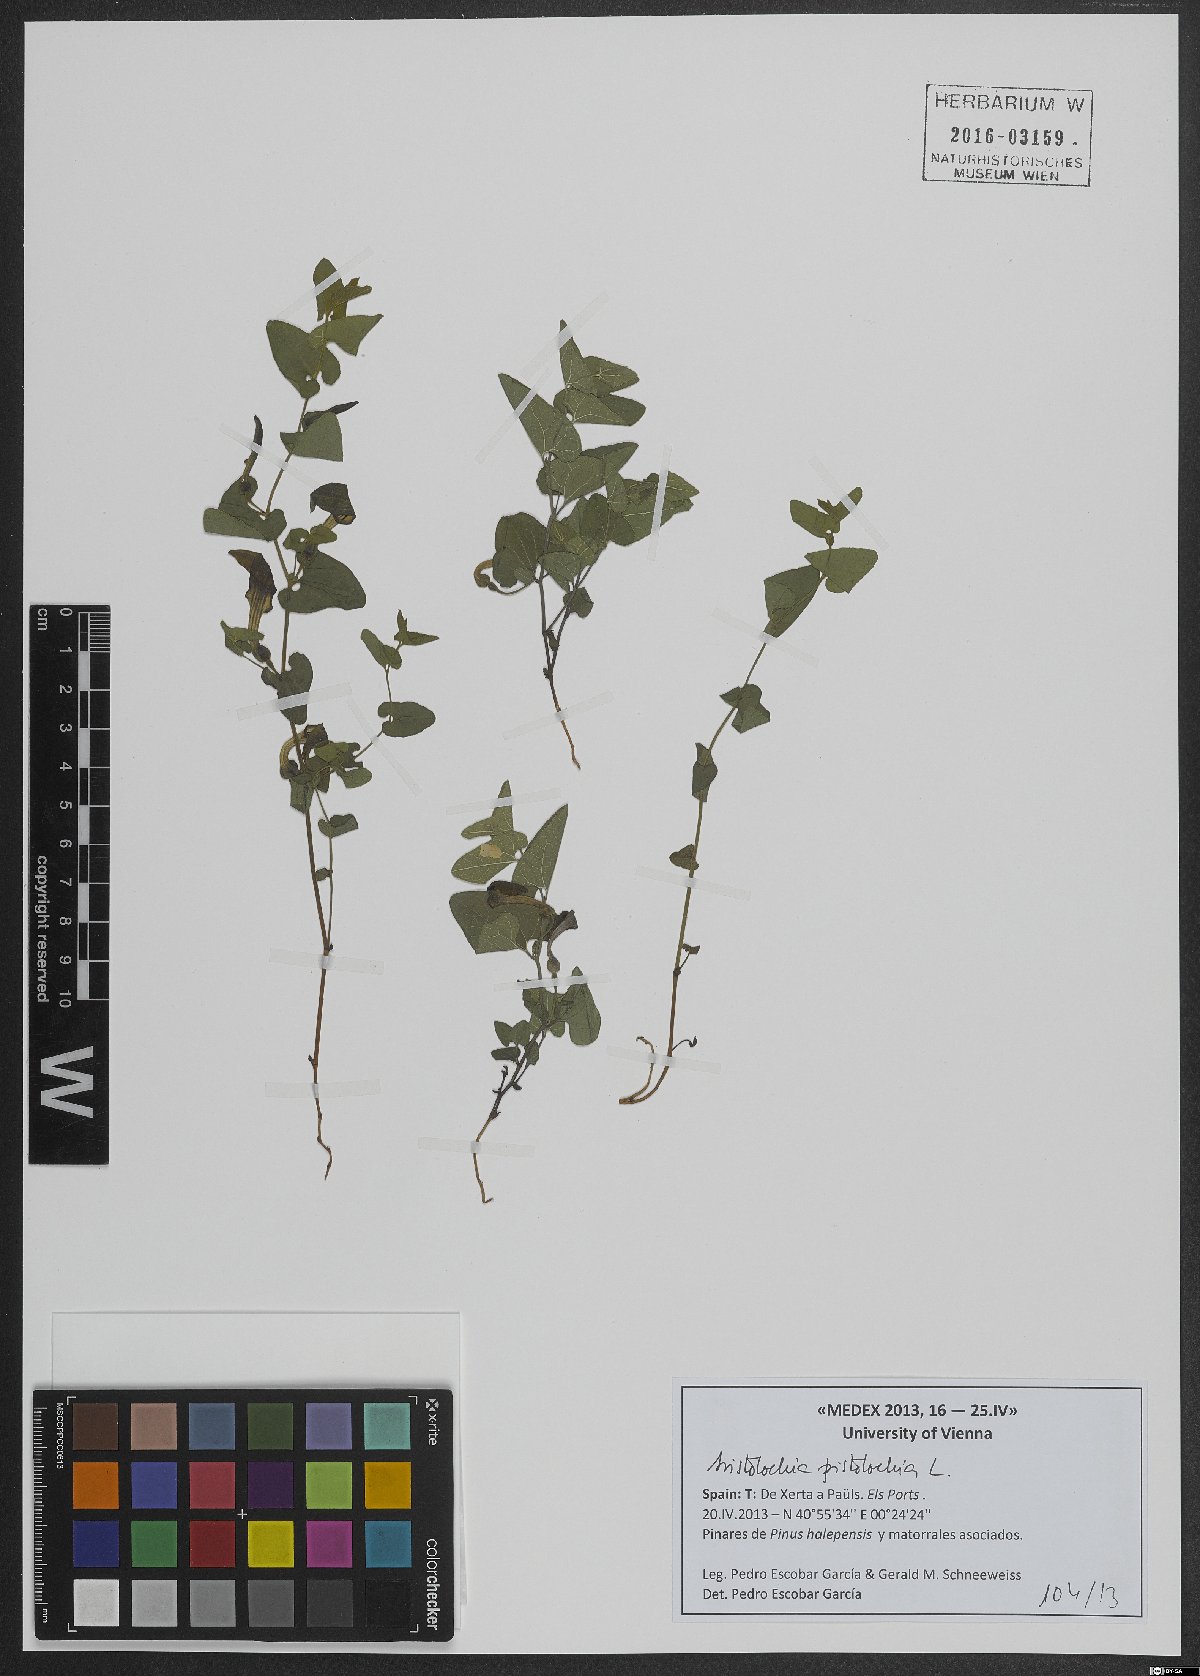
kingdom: Plantae
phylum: Tracheophyta
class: Magnoliopsida
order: Piperales
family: Aristolochiaceae
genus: Aristolochia
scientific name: Aristolochia pistolochia
